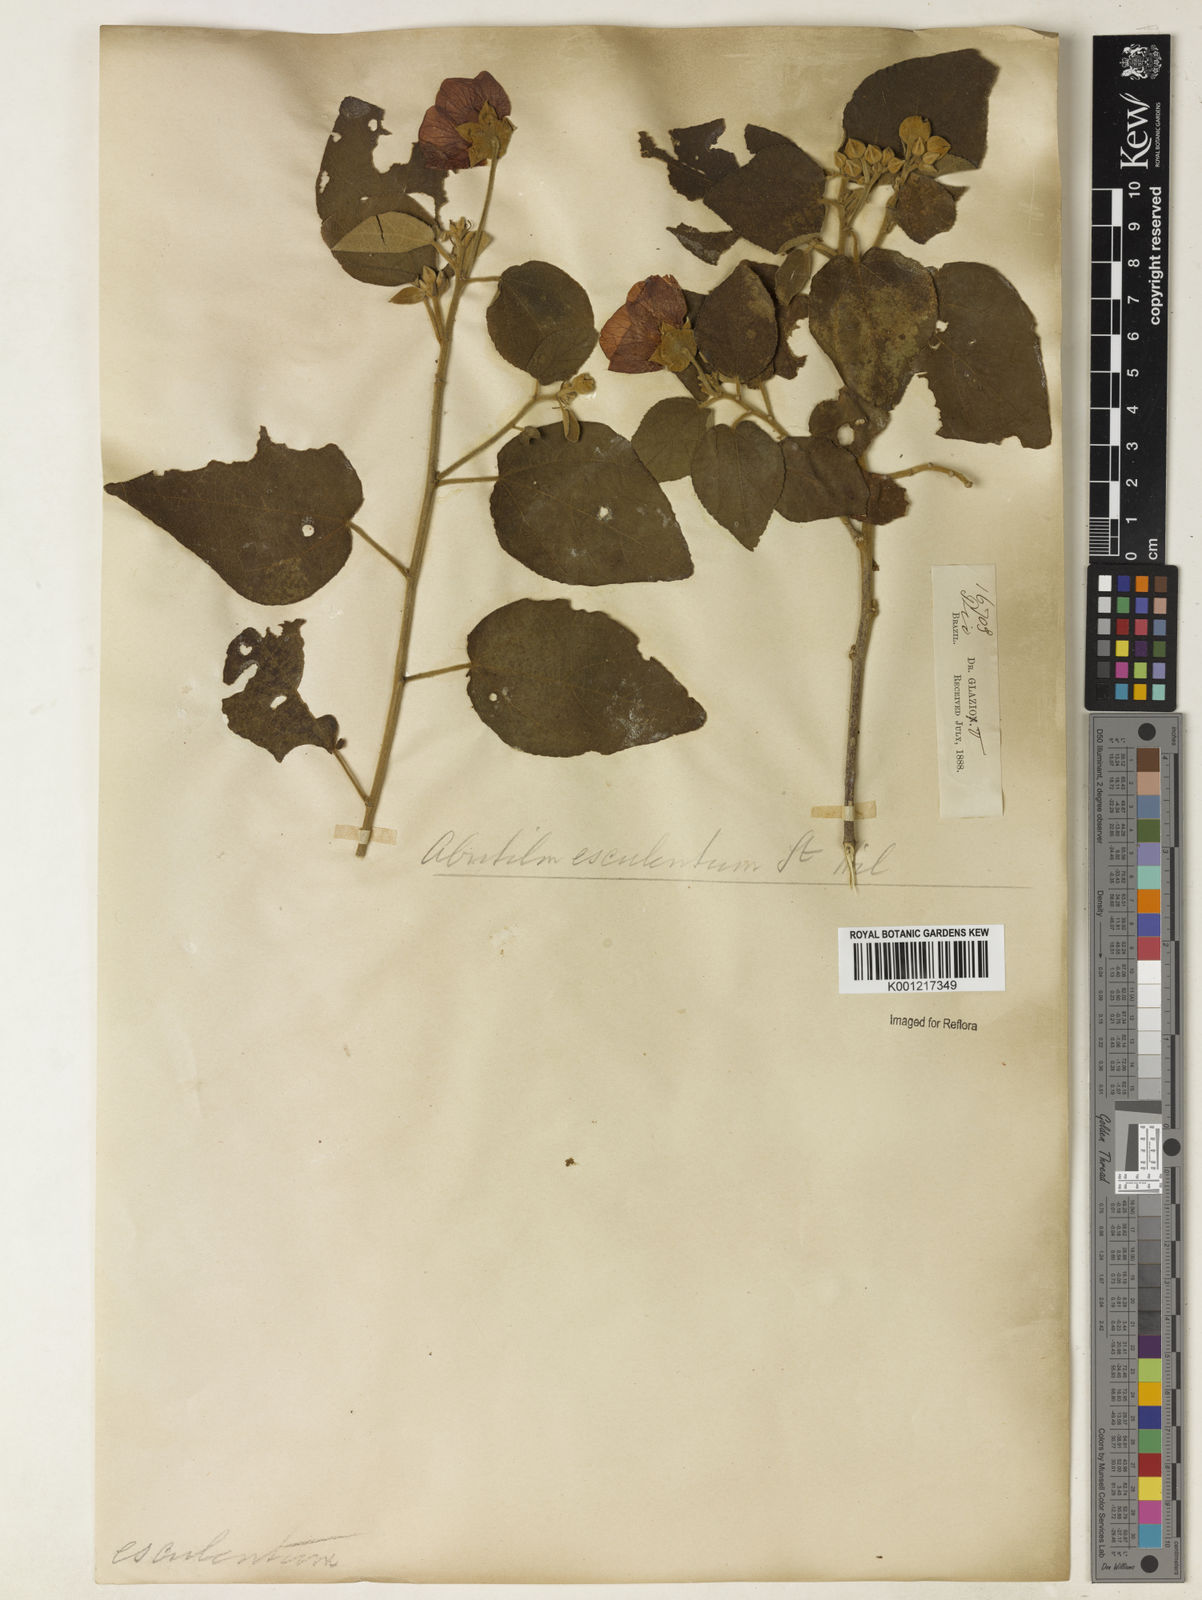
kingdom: Plantae
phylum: Tracheophyta
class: Magnoliopsida
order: Malvales
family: Malvaceae
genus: Bakeridesia
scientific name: Bakeridesia esculenta
